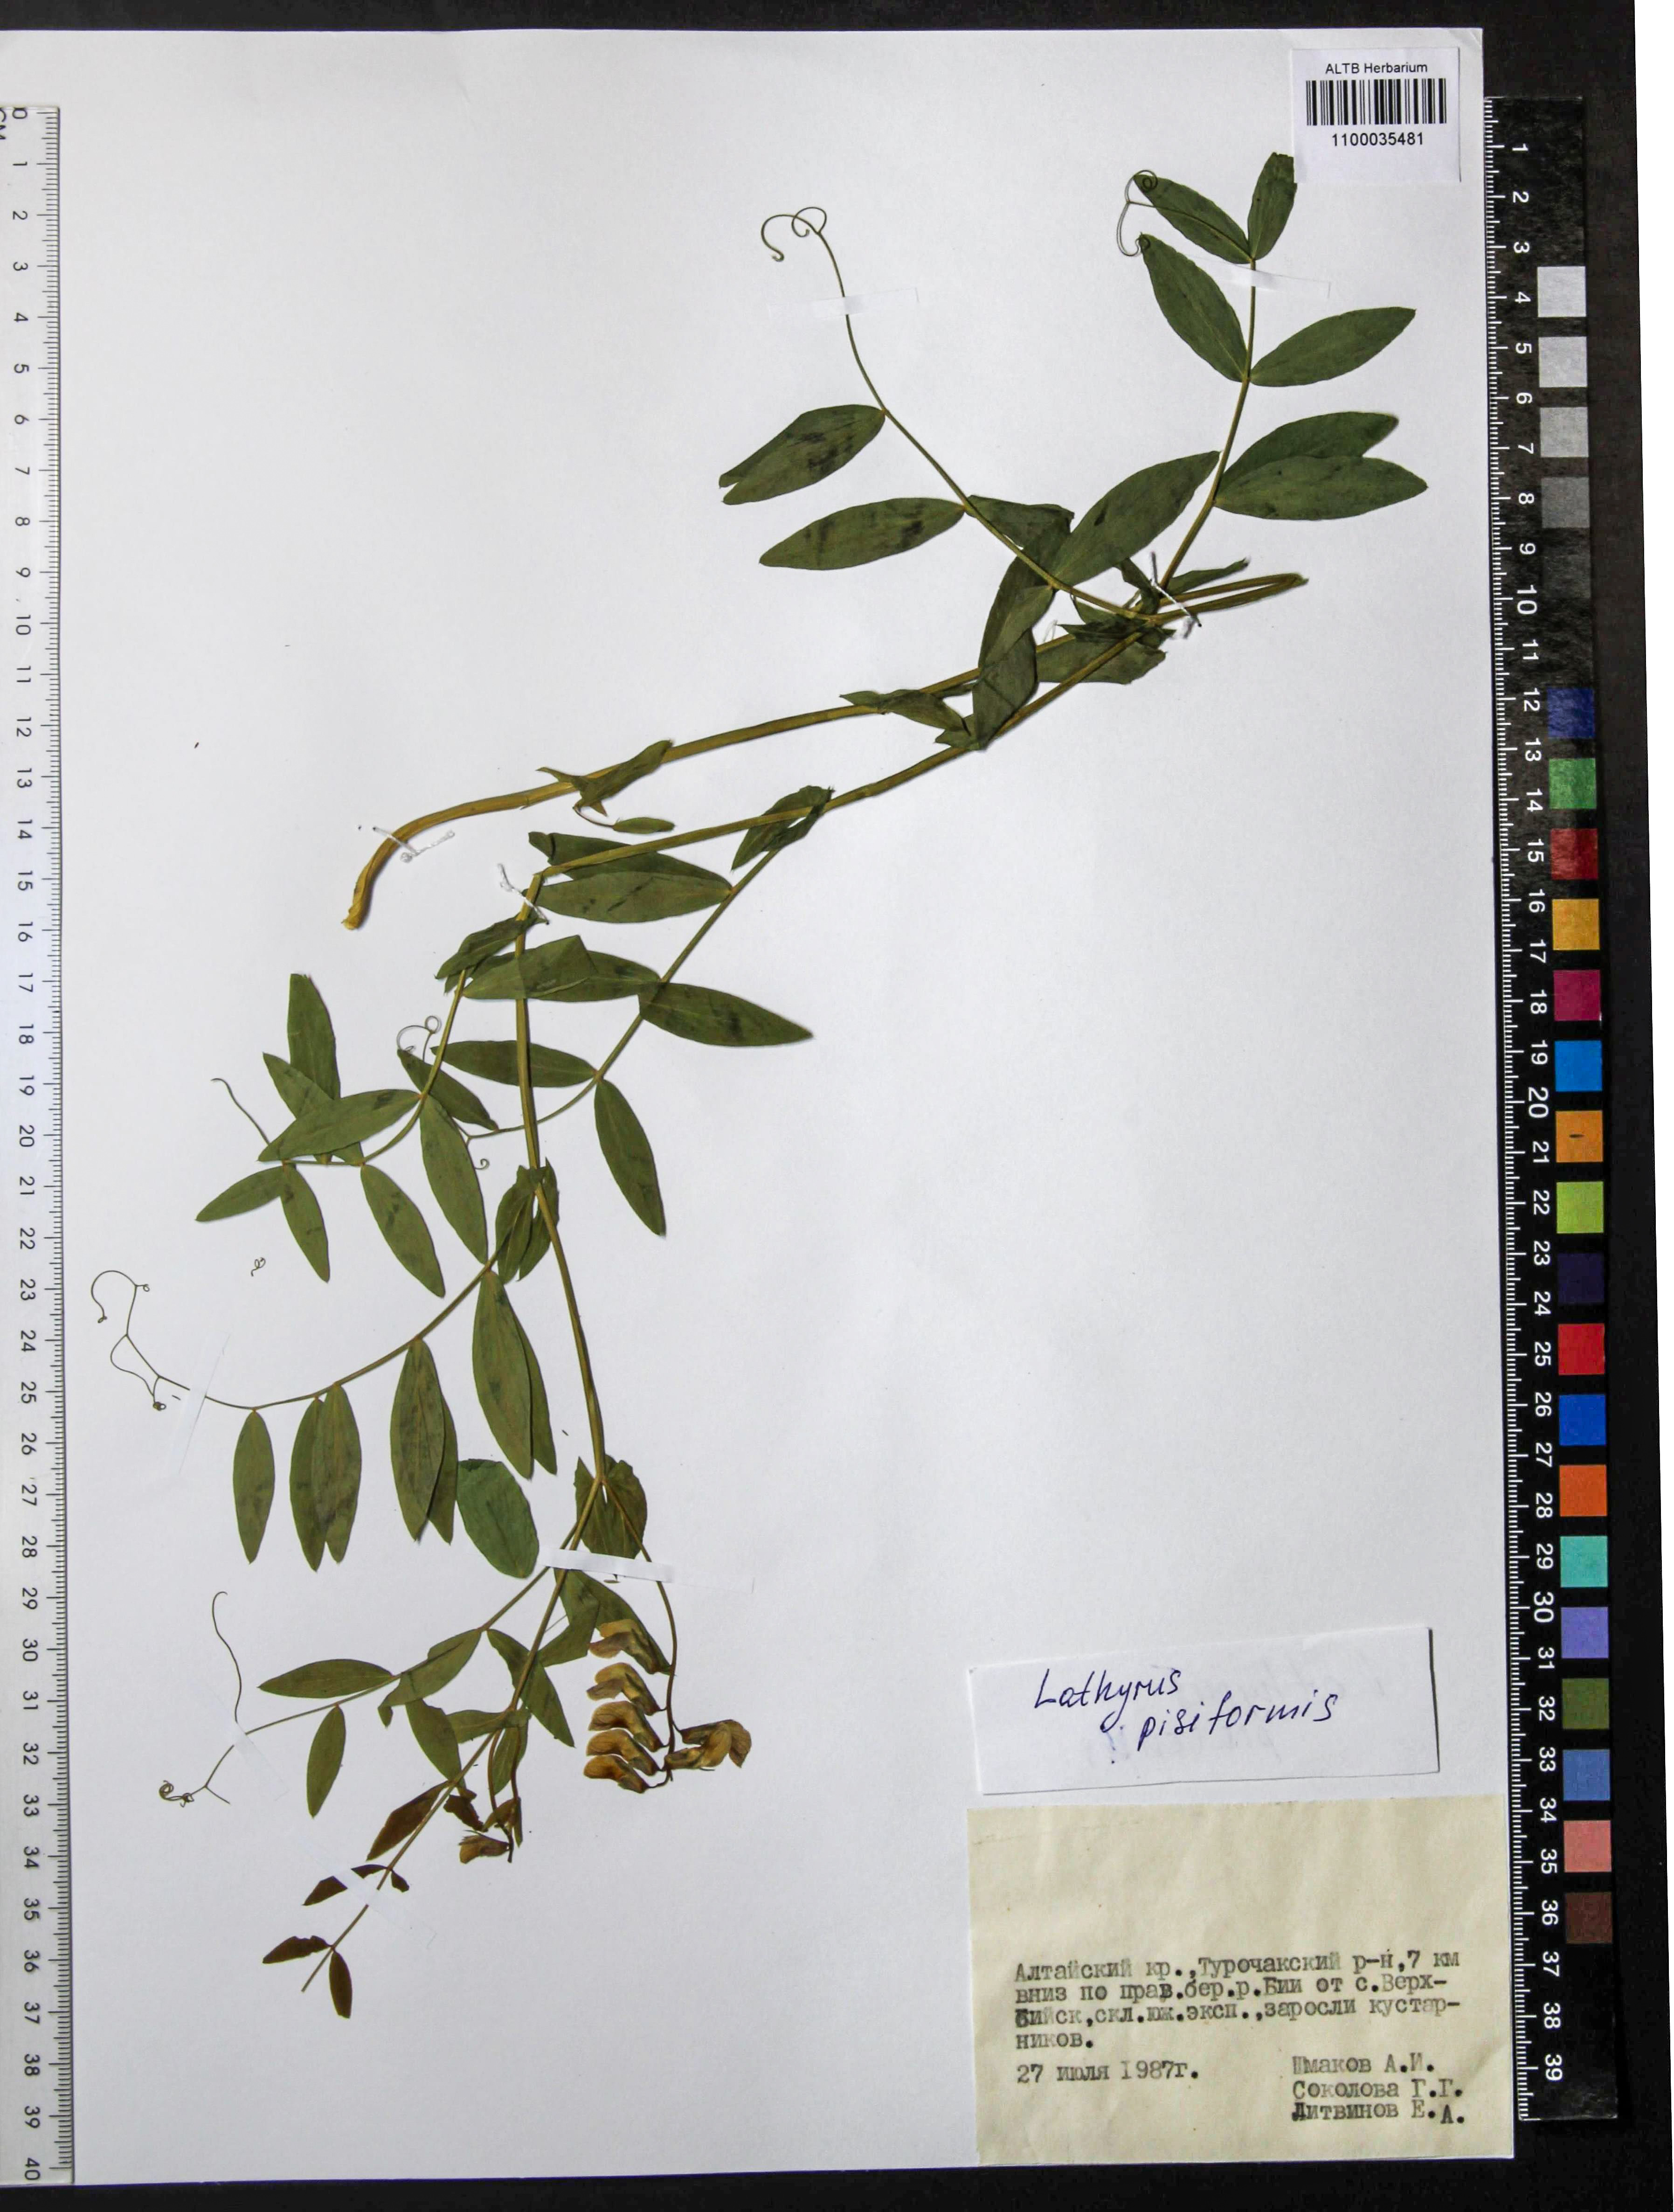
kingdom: Plantae
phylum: Tracheophyta
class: Magnoliopsida
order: Fabales
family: Fabaceae
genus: Lathyrus
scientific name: Lathyrus pisiformis
